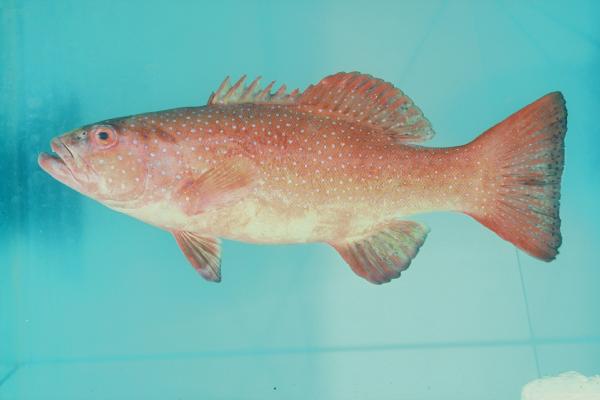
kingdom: Animalia
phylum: Chordata
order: Perciformes
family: Serranidae
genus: Plectropomus
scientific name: Plectropomus leopardus
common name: Coral trout
